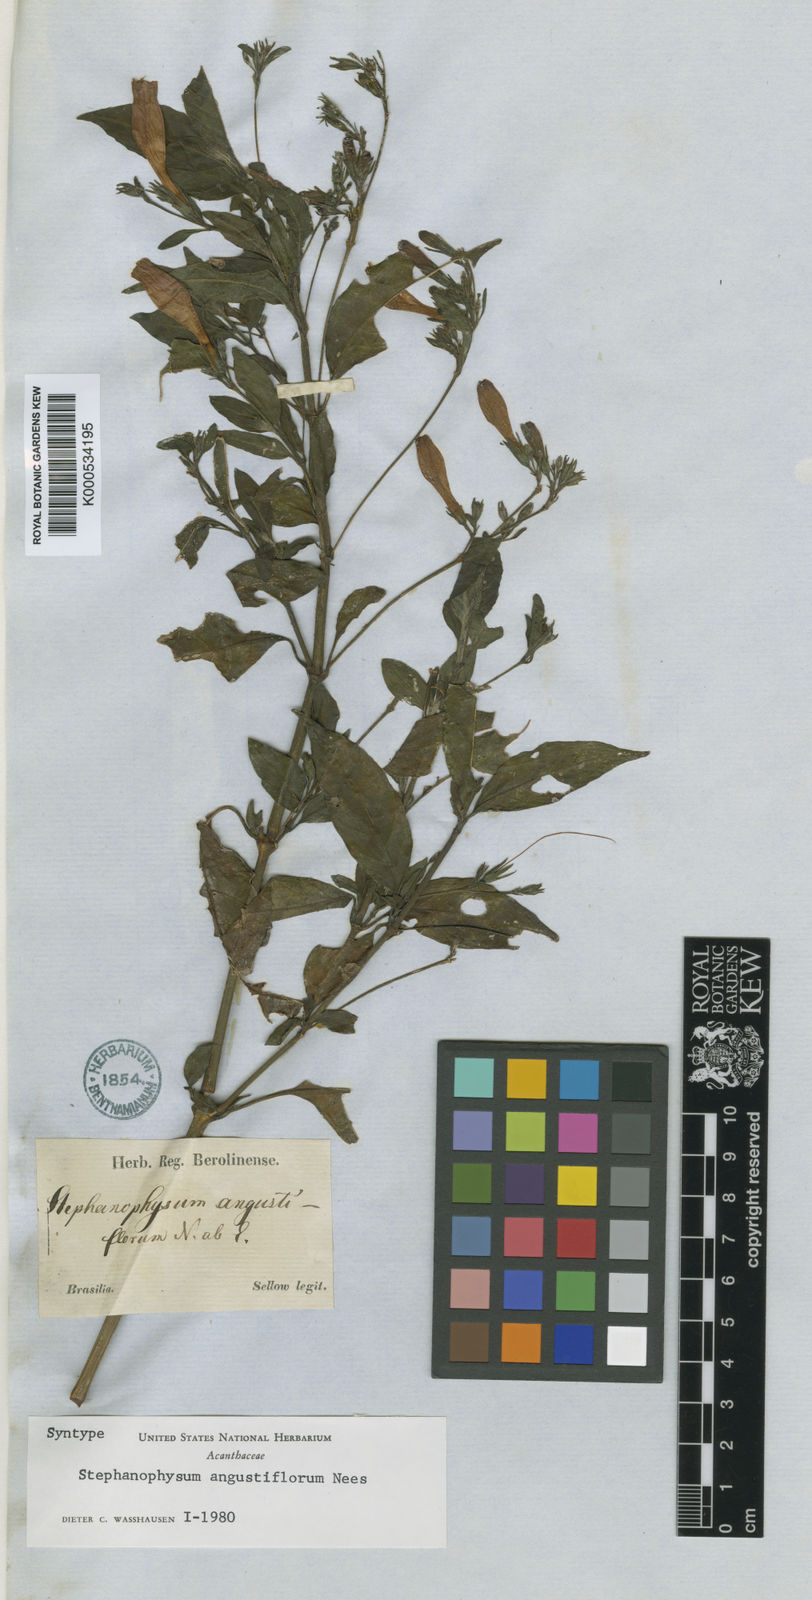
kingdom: Plantae
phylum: Tracheophyta
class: Magnoliopsida
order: Lamiales
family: Acanthaceae
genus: Ruellia
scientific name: Ruellia angustiflora
